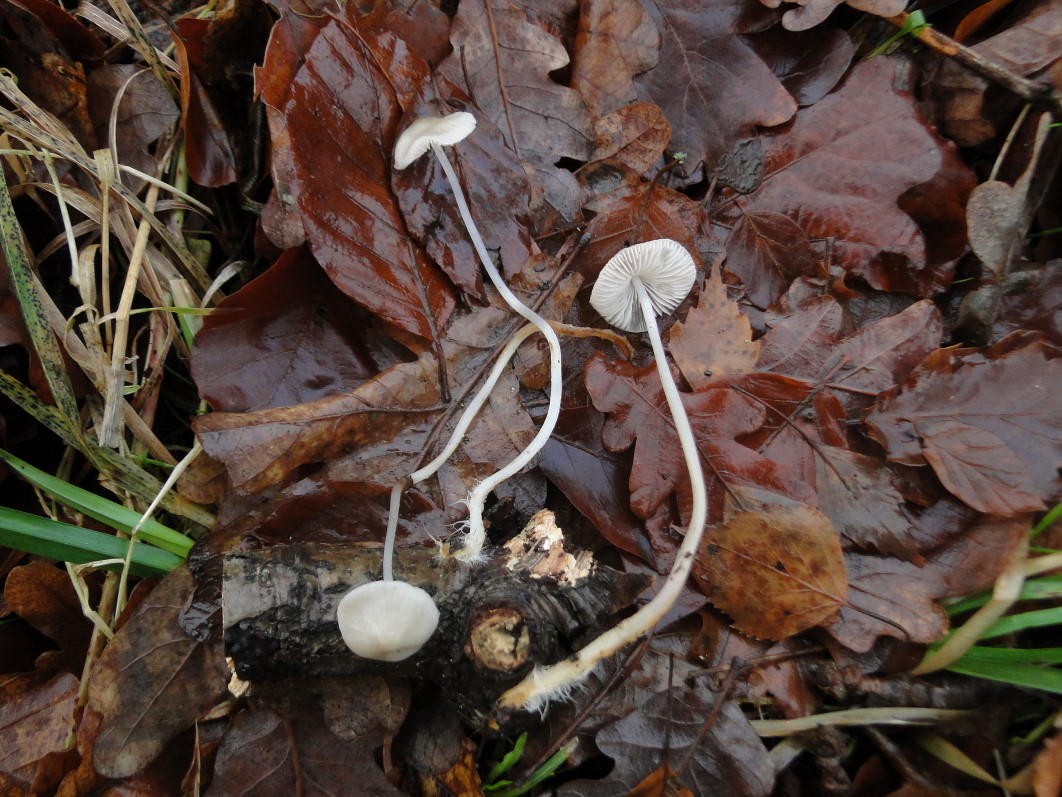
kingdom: Fungi
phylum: Basidiomycota
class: Agaricomycetes
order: Agaricales
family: Mycenaceae
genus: Mycena
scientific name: Mycena polygramma
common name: mangestribet huesvamp
